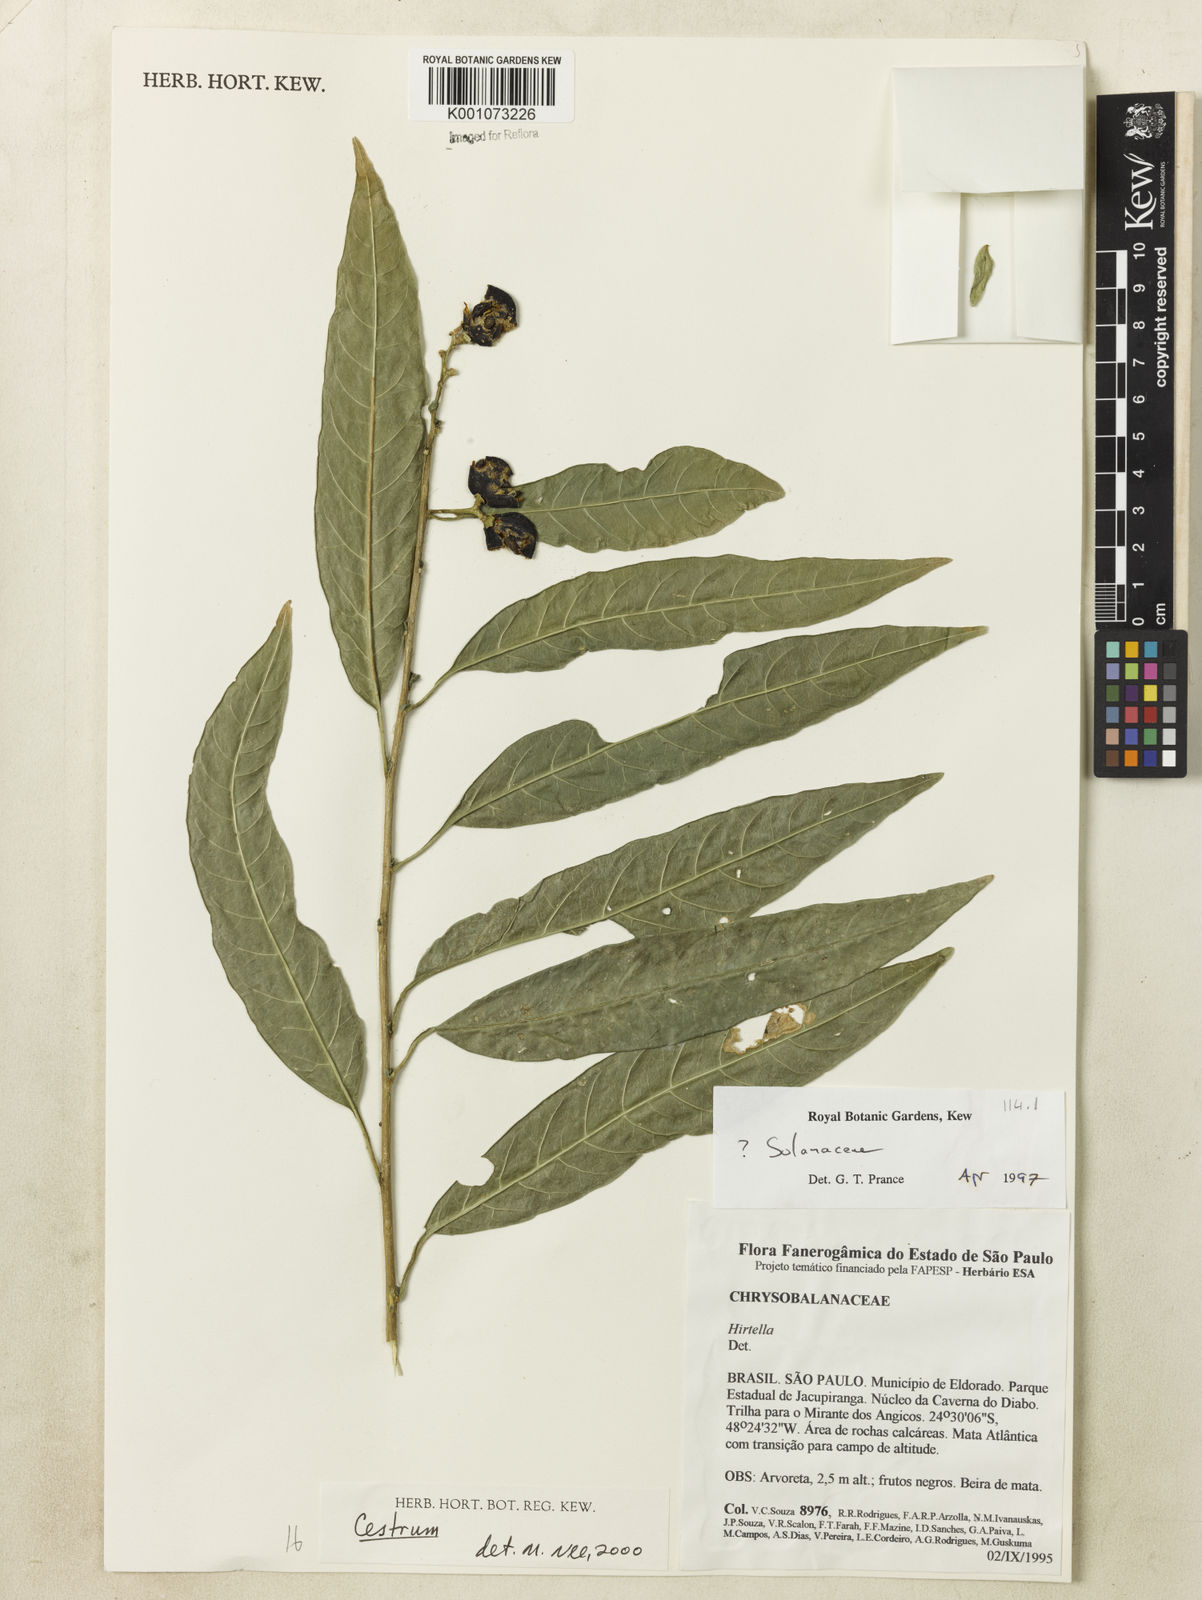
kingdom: Plantae
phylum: Tracheophyta
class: Magnoliopsida
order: Solanales
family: Solanaceae
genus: Cestrum
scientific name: Cestrum
